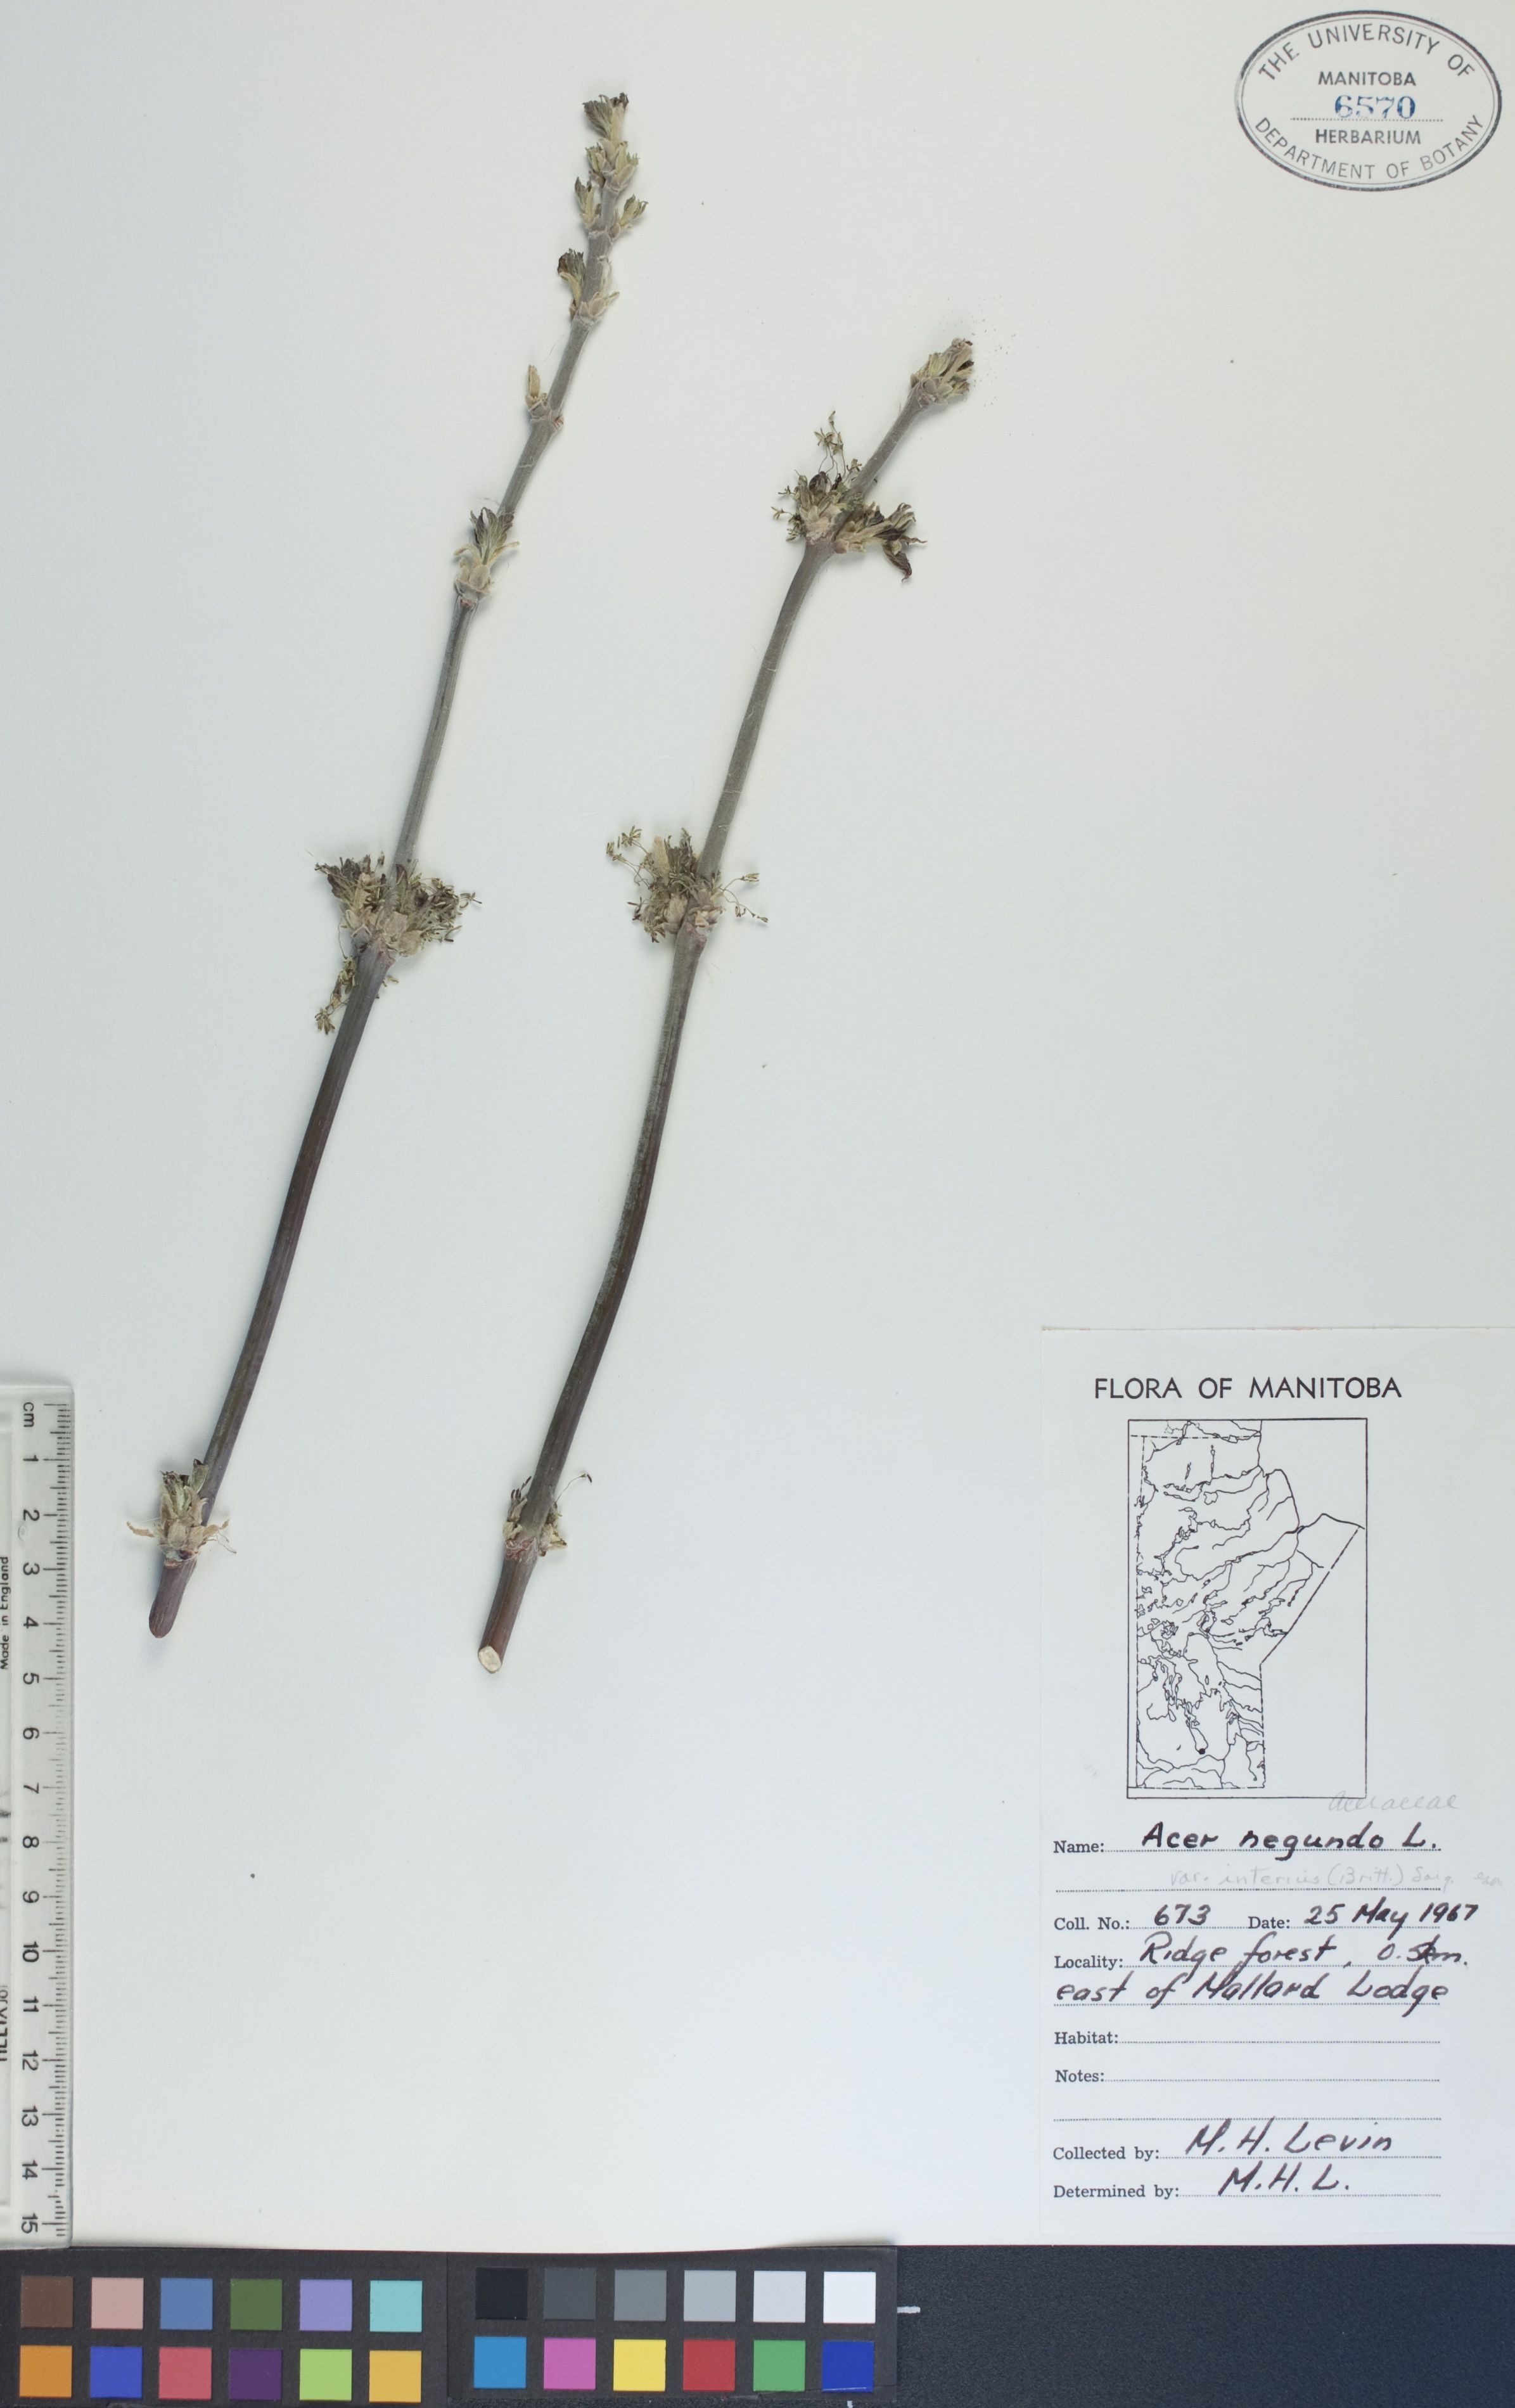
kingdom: Plantae
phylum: Tracheophyta
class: Magnoliopsida
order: Sapindales
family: Sapindaceae
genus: Acer
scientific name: Acer negundo
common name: Ashleaf maple
